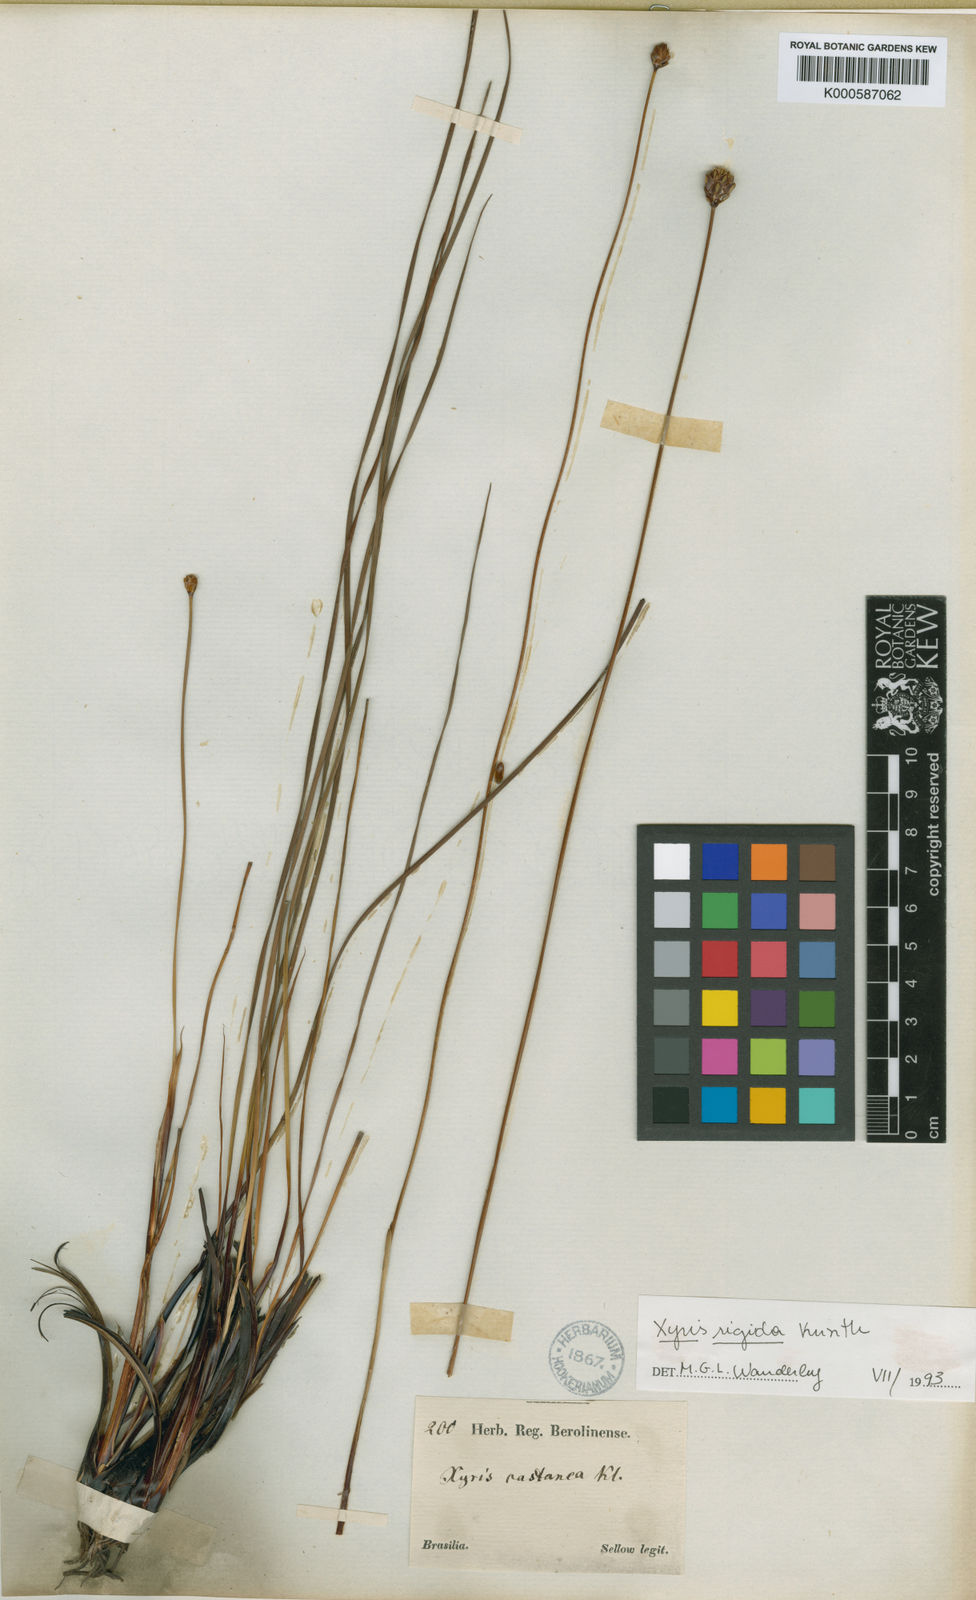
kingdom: Plantae
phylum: Tracheophyta
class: Liliopsida
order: Poales
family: Xyridaceae
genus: Xyris
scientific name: Xyris rigida
